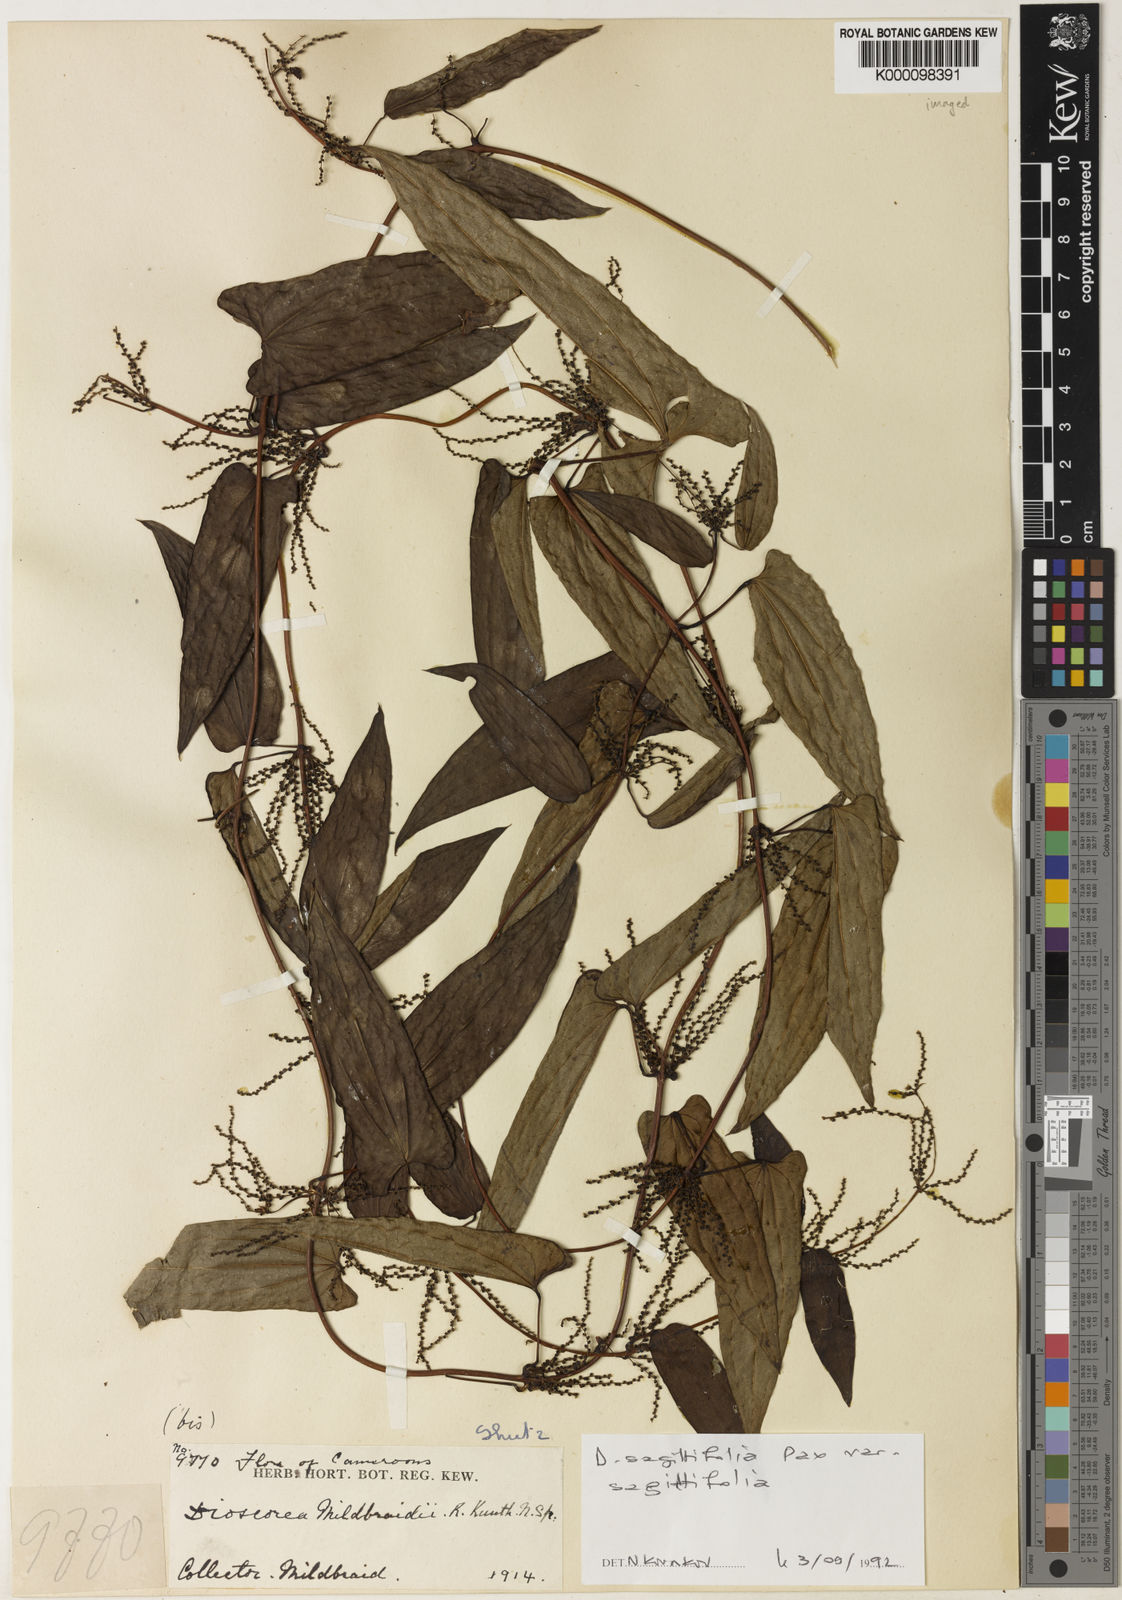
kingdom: Plantae
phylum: Tracheophyta
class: Liliopsida
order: Dioscoreales
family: Dioscoreaceae
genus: Dioscorea
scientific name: Dioscorea sagittifolia
